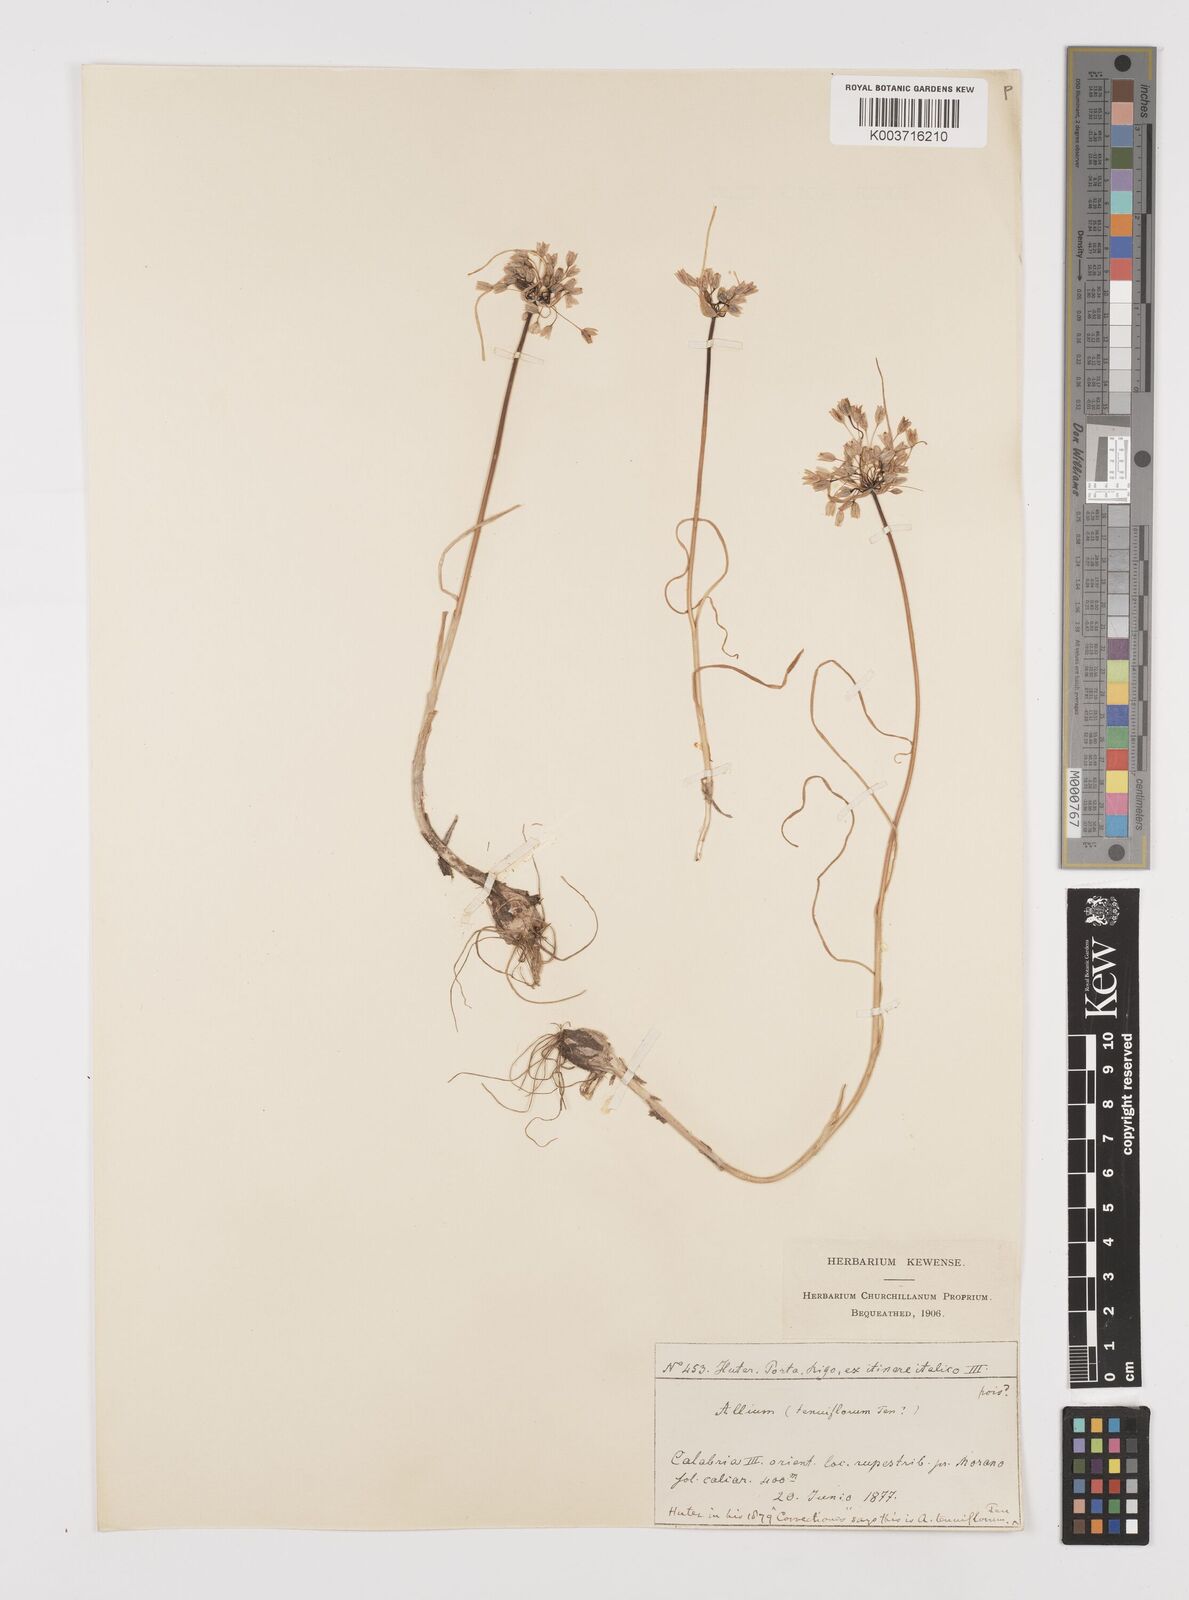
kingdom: Plantae
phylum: Tracheophyta
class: Liliopsida
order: Asparagales
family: Amaryllidaceae
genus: Allium
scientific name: Allium tenuiflorum
